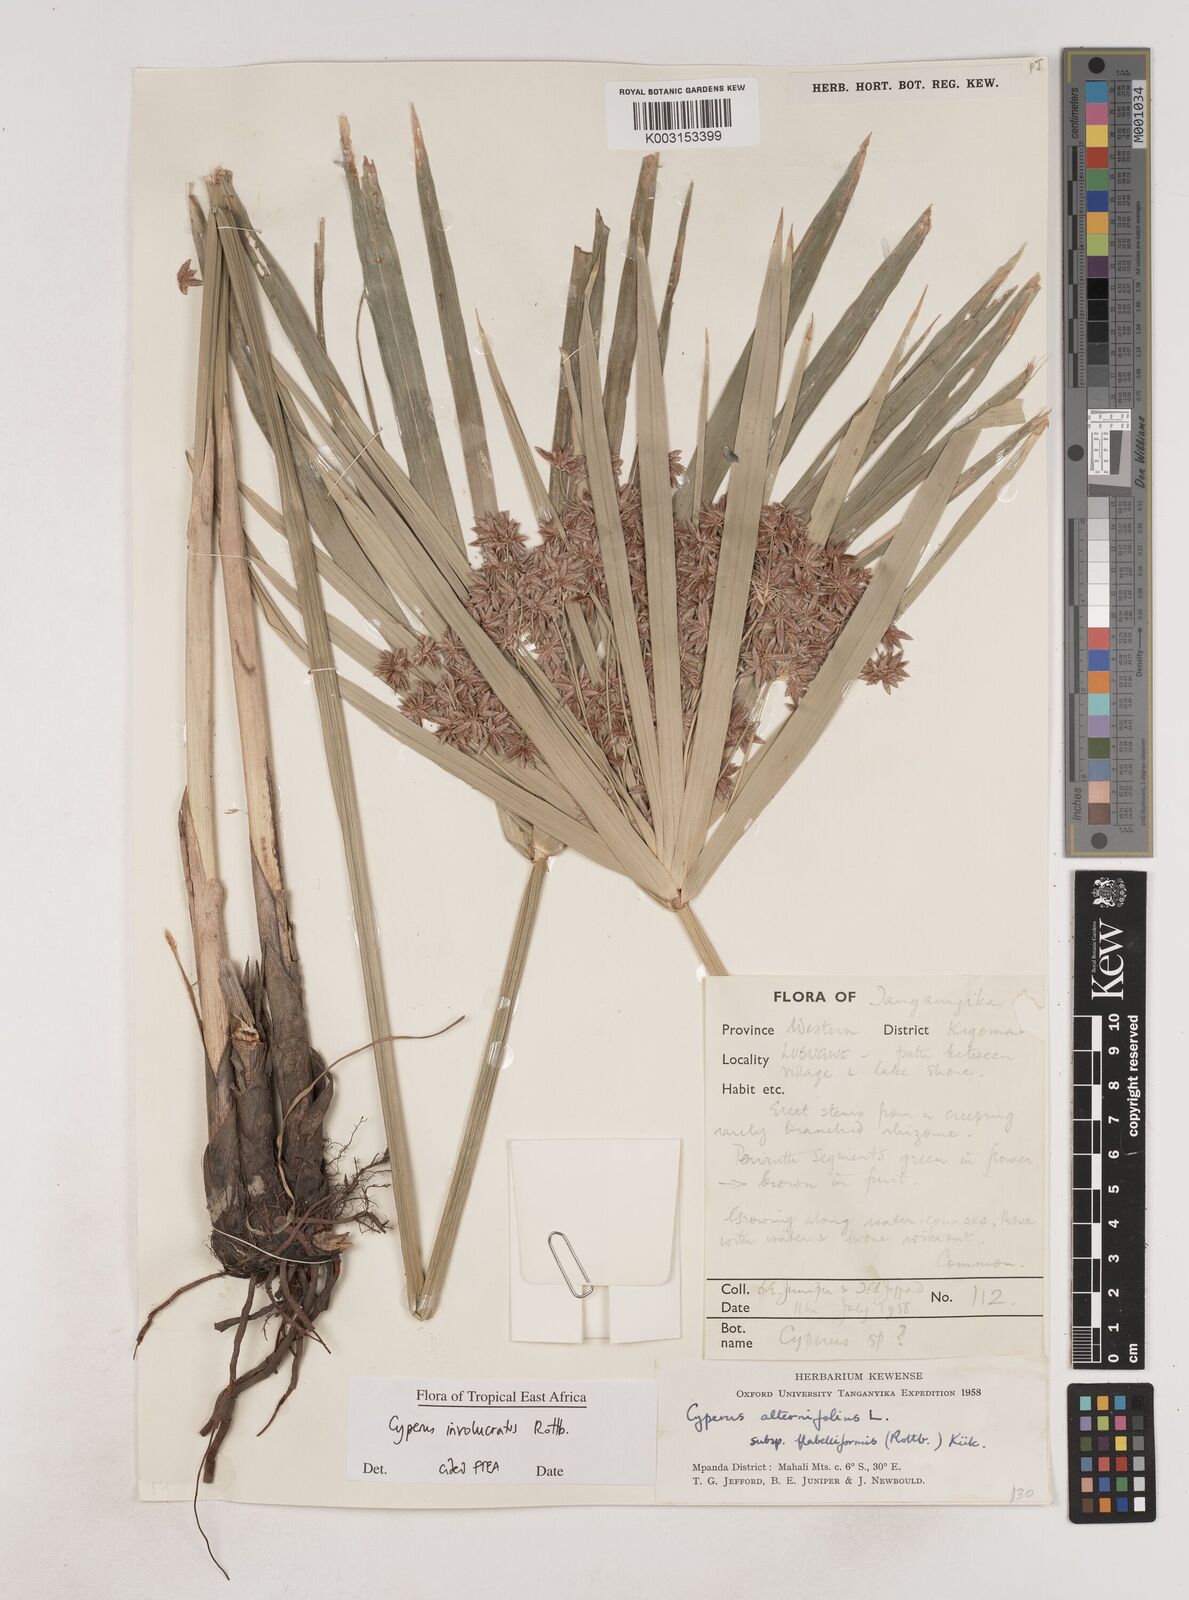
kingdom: Plantae
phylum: Tracheophyta
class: Liliopsida
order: Poales
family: Cyperaceae
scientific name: Cyperaceae
